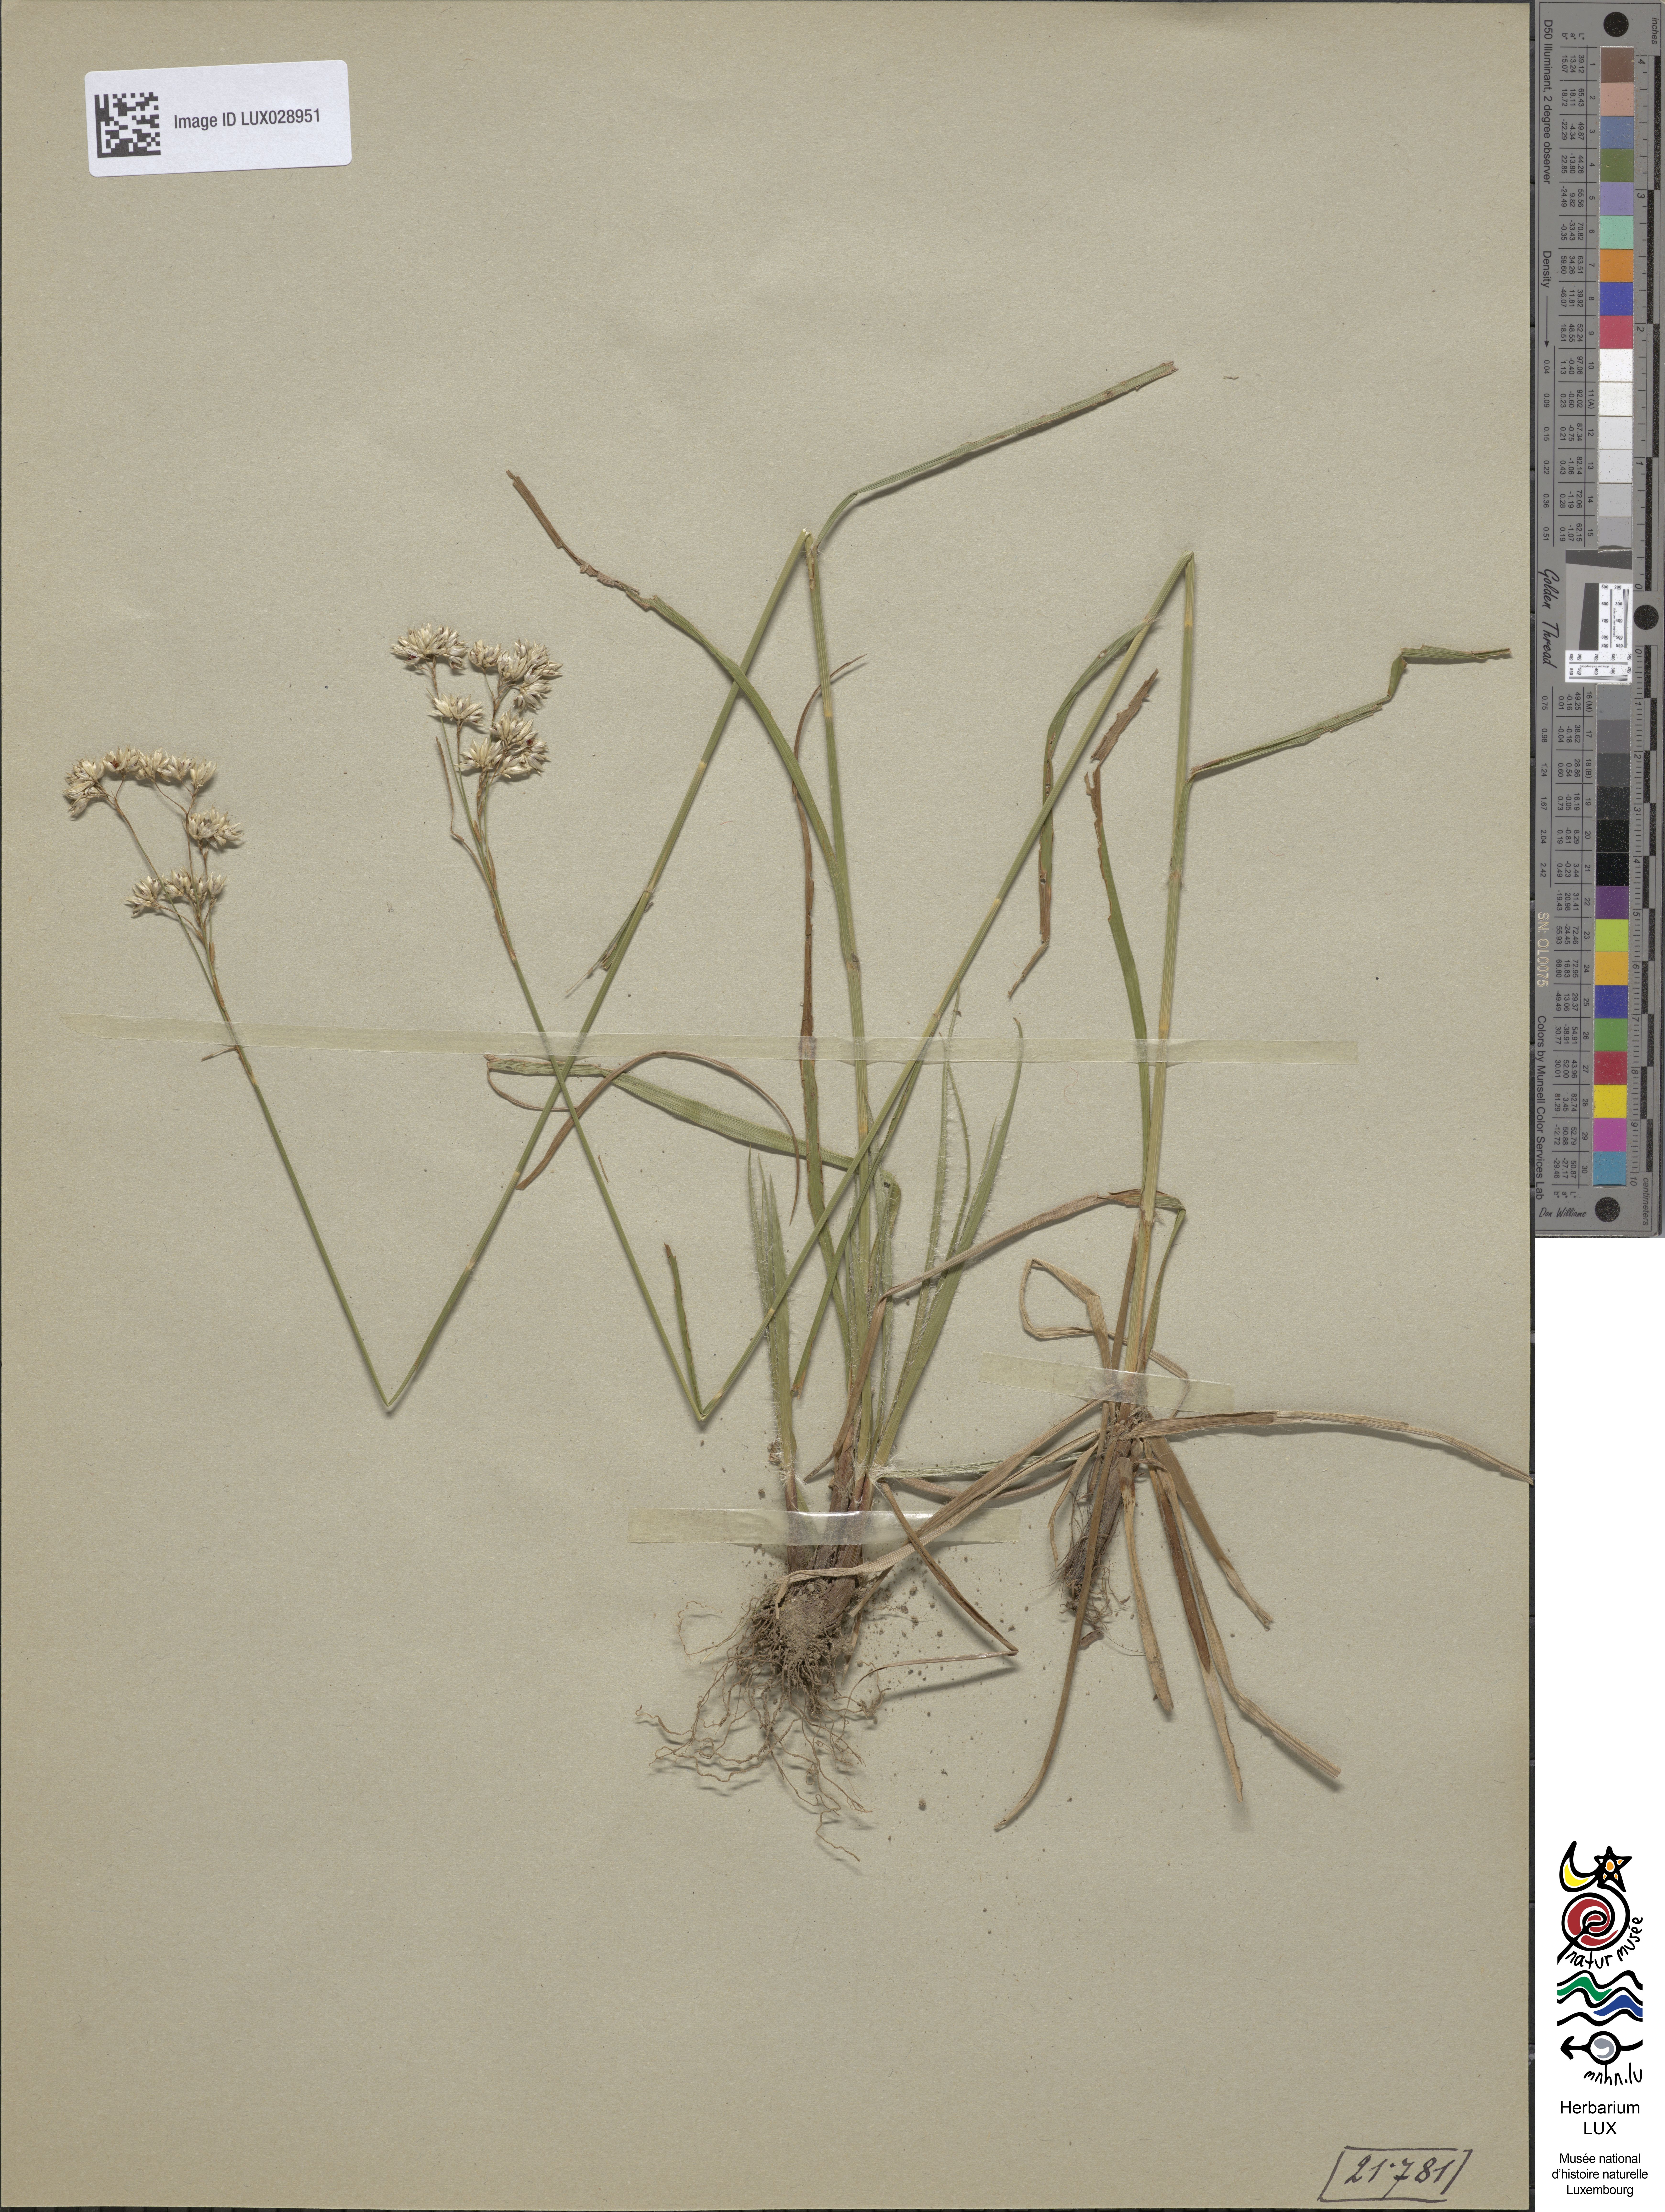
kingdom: Plantae
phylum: Tracheophyta
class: Liliopsida
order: Poales
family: Juncaceae
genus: Luzula
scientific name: Luzula nivea
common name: Snow-white wood-rush
